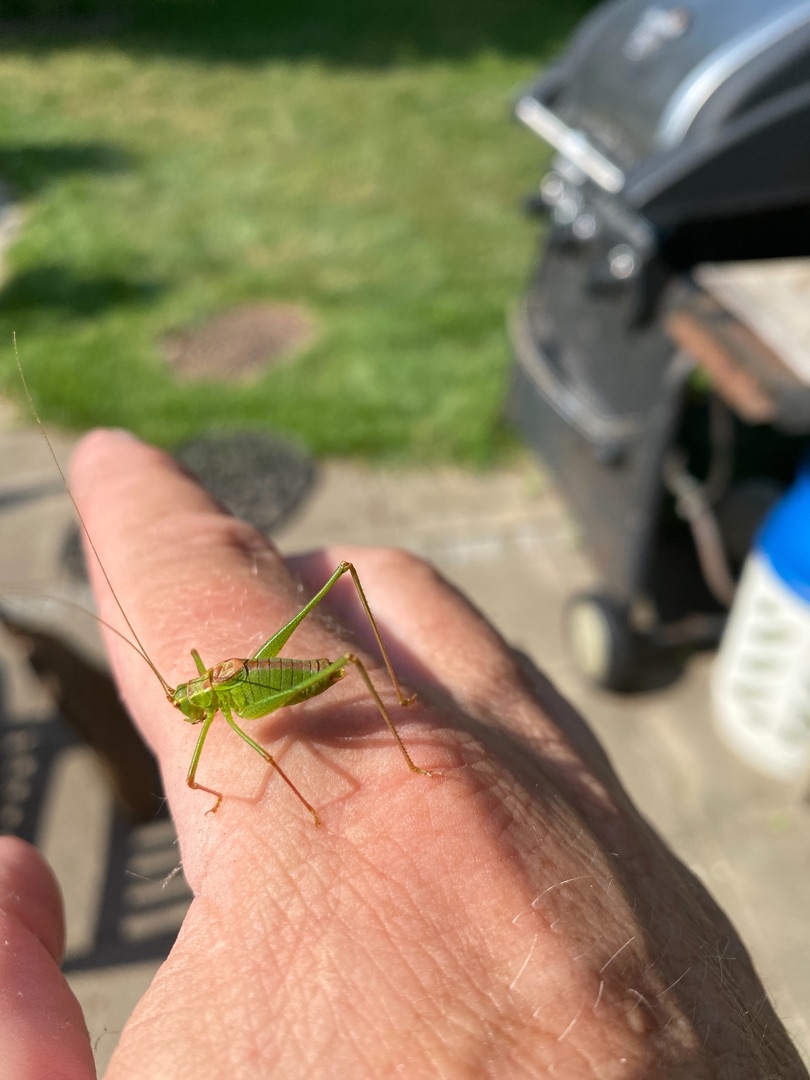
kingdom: Animalia
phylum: Arthropoda
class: Insecta
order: Orthoptera
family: Tettigoniidae
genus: Leptophyes
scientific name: Leptophyes punctatissima
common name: Krumknivgræshoppe
